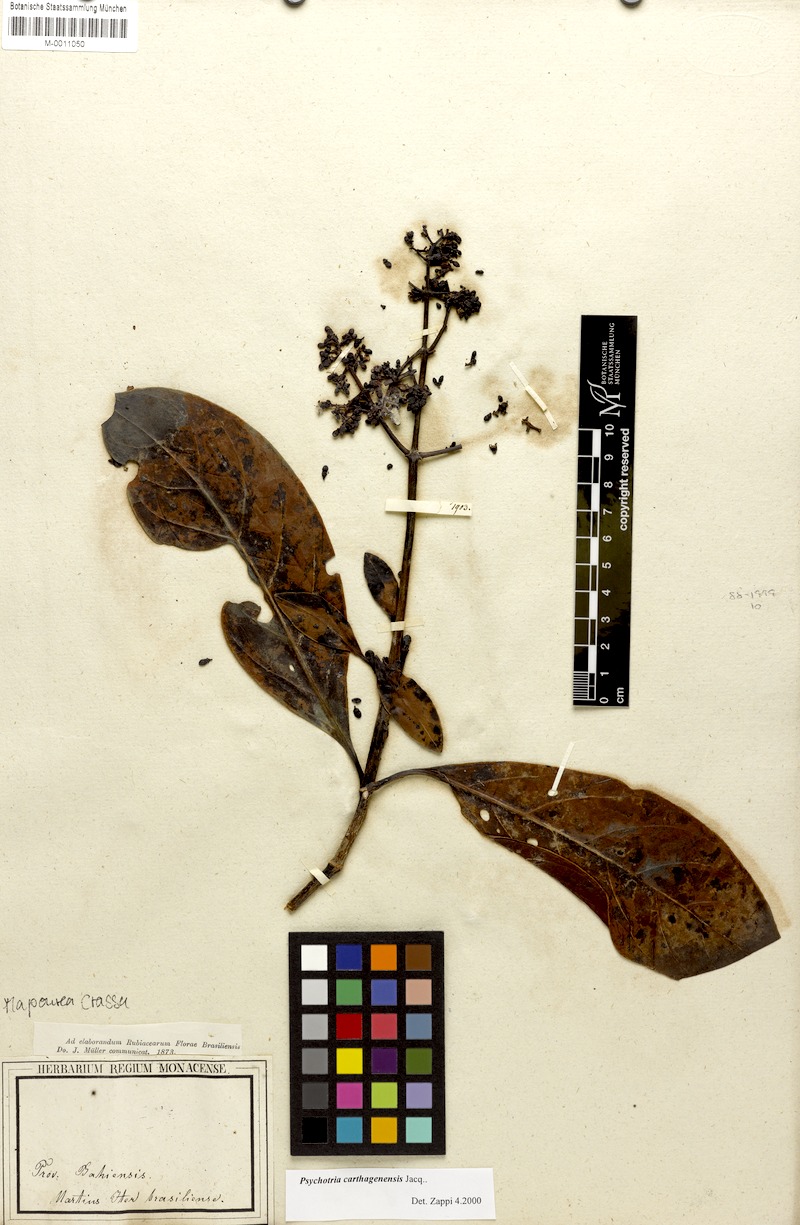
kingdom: Plantae
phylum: Tracheophyta
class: Magnoliopsida
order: Gentianales
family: Rubiaceae
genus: Psychotria
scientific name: Psychotria carthagenensis
